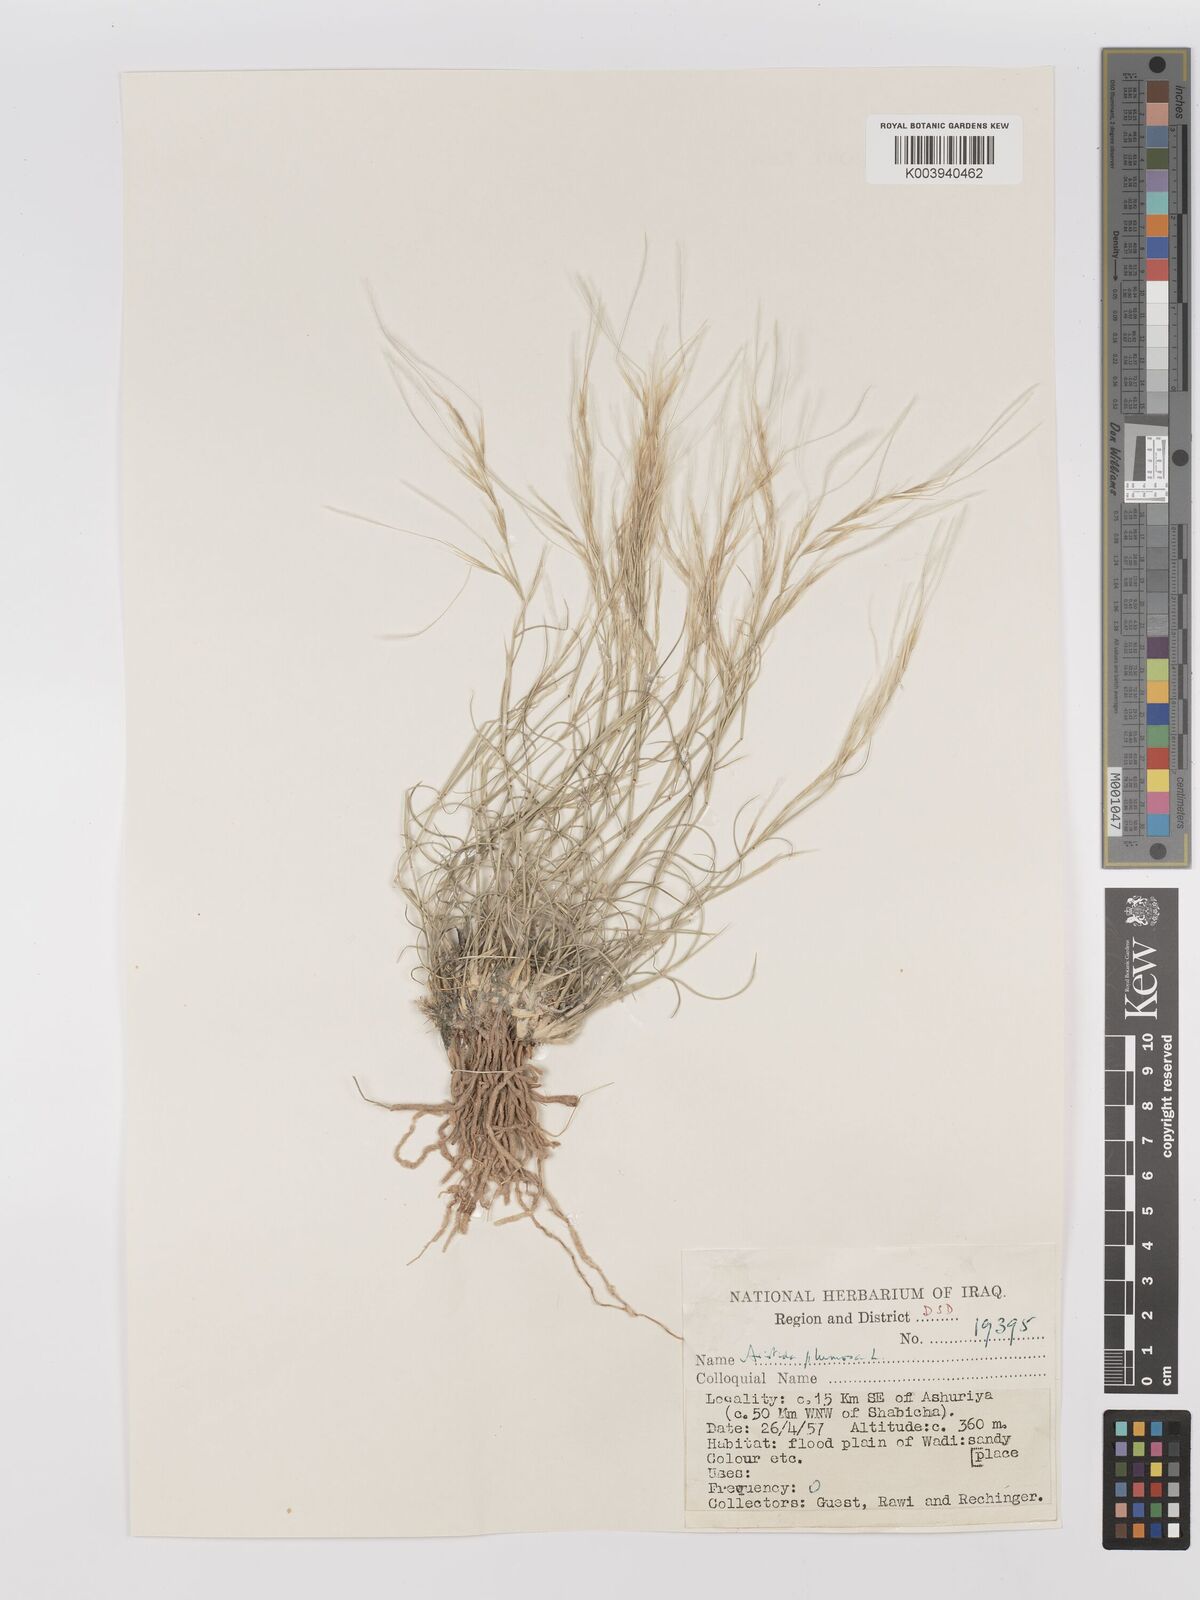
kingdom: Plantae
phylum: Tracheophyta
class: Liliopsida
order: Poales
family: Poaceae
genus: Stipagrostis
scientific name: Stipagrostis plumosa
